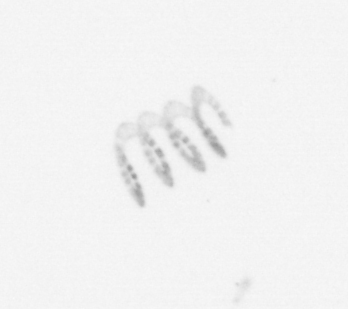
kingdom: Chromista
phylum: Ochrophyta
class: Bacillariophyceae
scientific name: Bacillariophyceae
